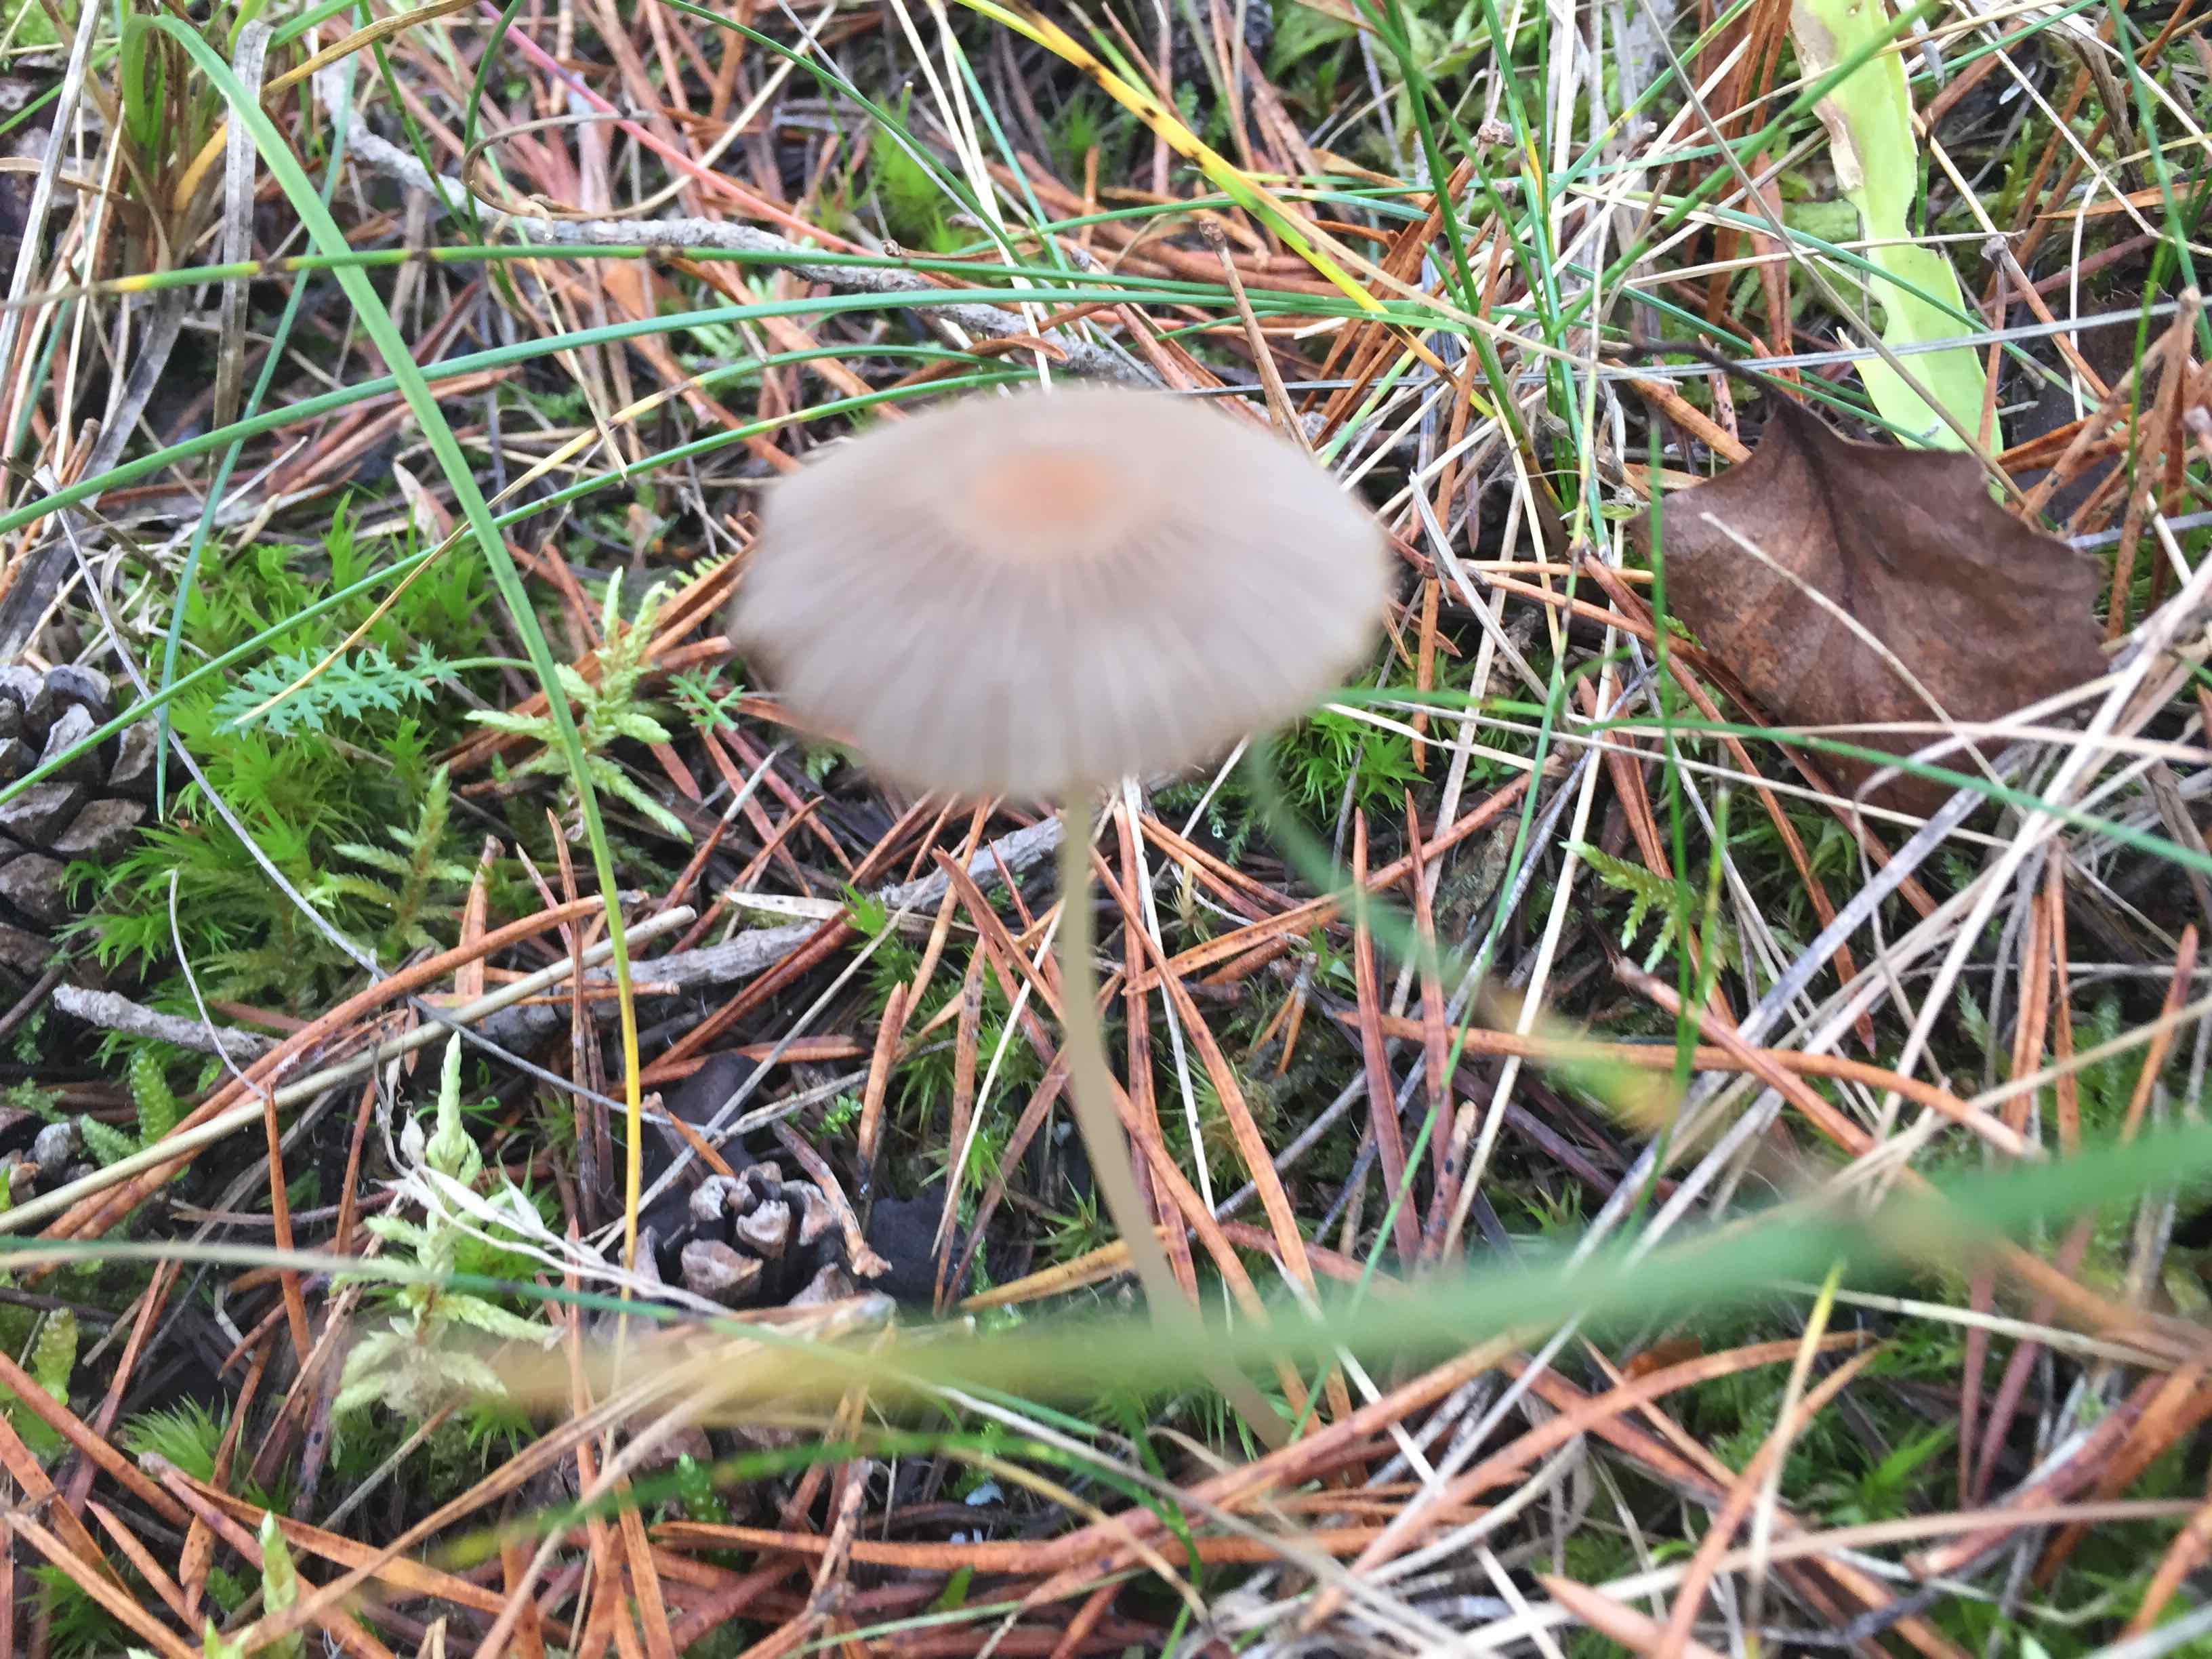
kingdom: Fungi
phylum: Basidiomycota
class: Agaricomycetes
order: Agaricales
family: Psathyrellaceae
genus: Parasola
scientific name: Parasola
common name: hjulhat
